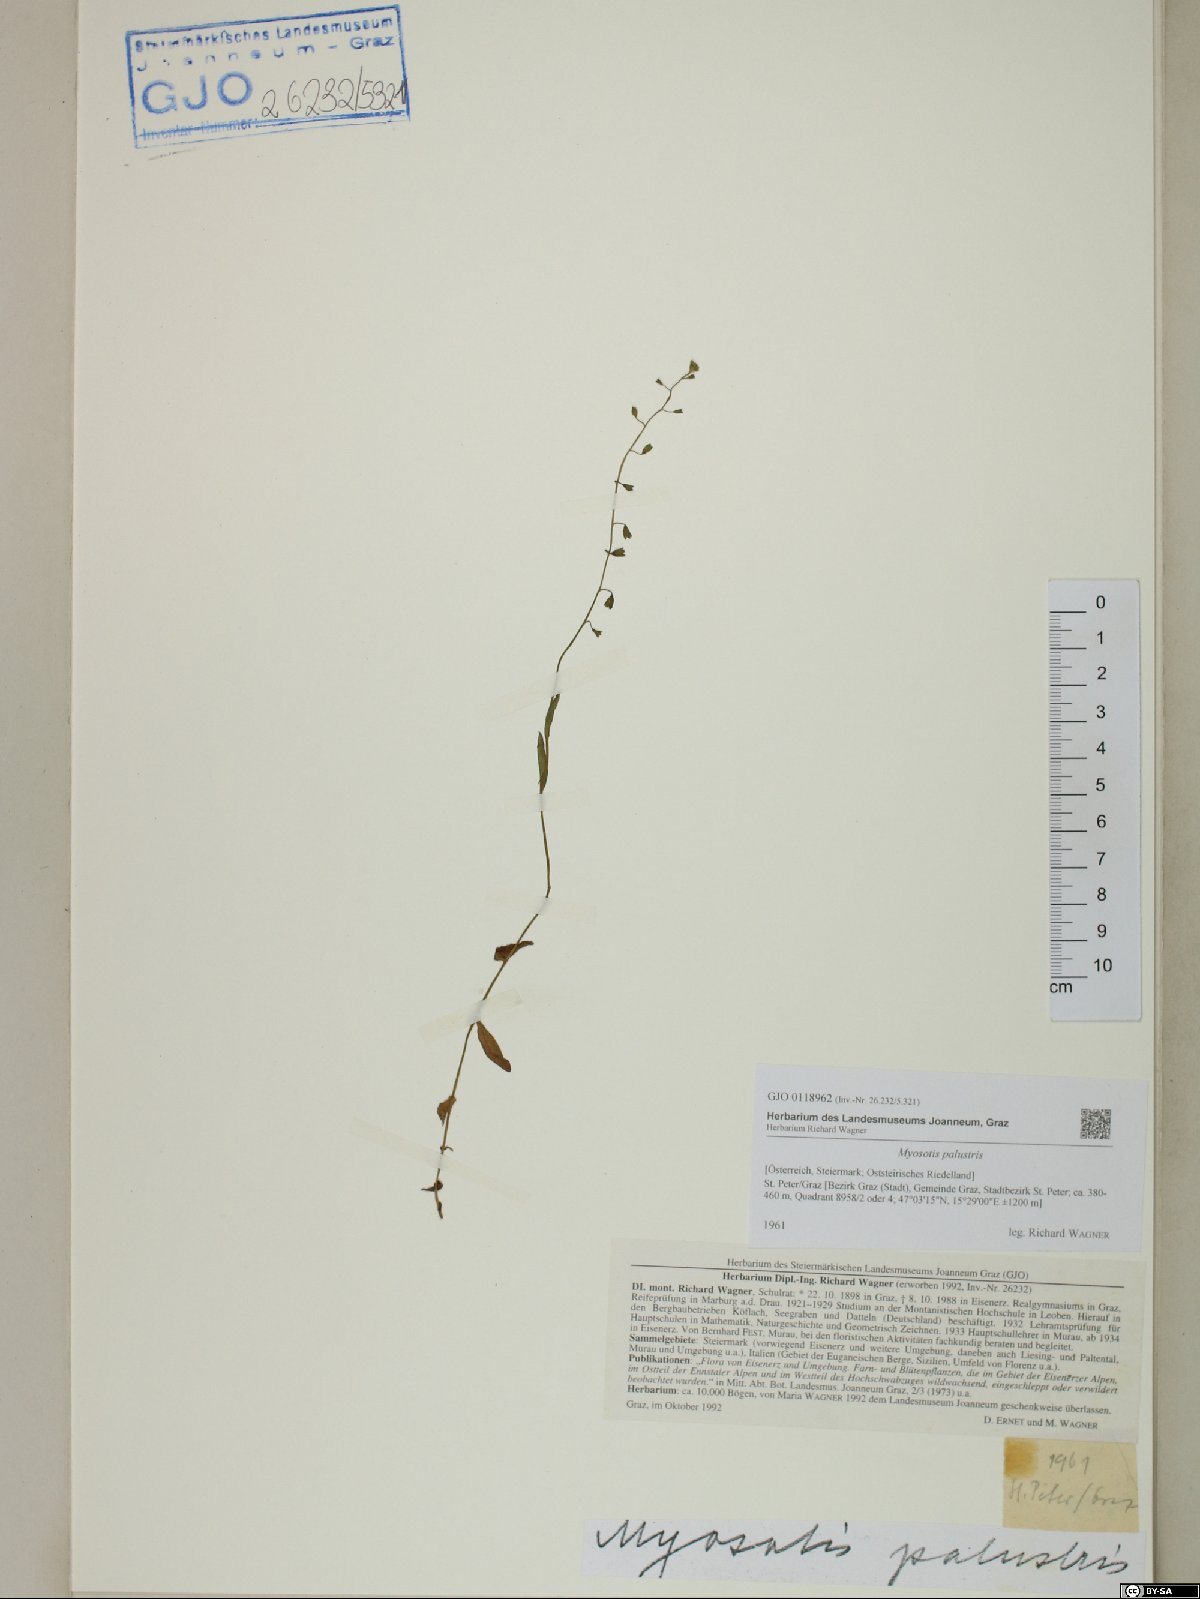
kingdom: Plantae
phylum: Tracheophyta
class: Magnoliopsida
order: Boraginales
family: Boraginaceae
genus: Myosotis
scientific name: Myosotis scorpioides
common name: Water forget-me-not
